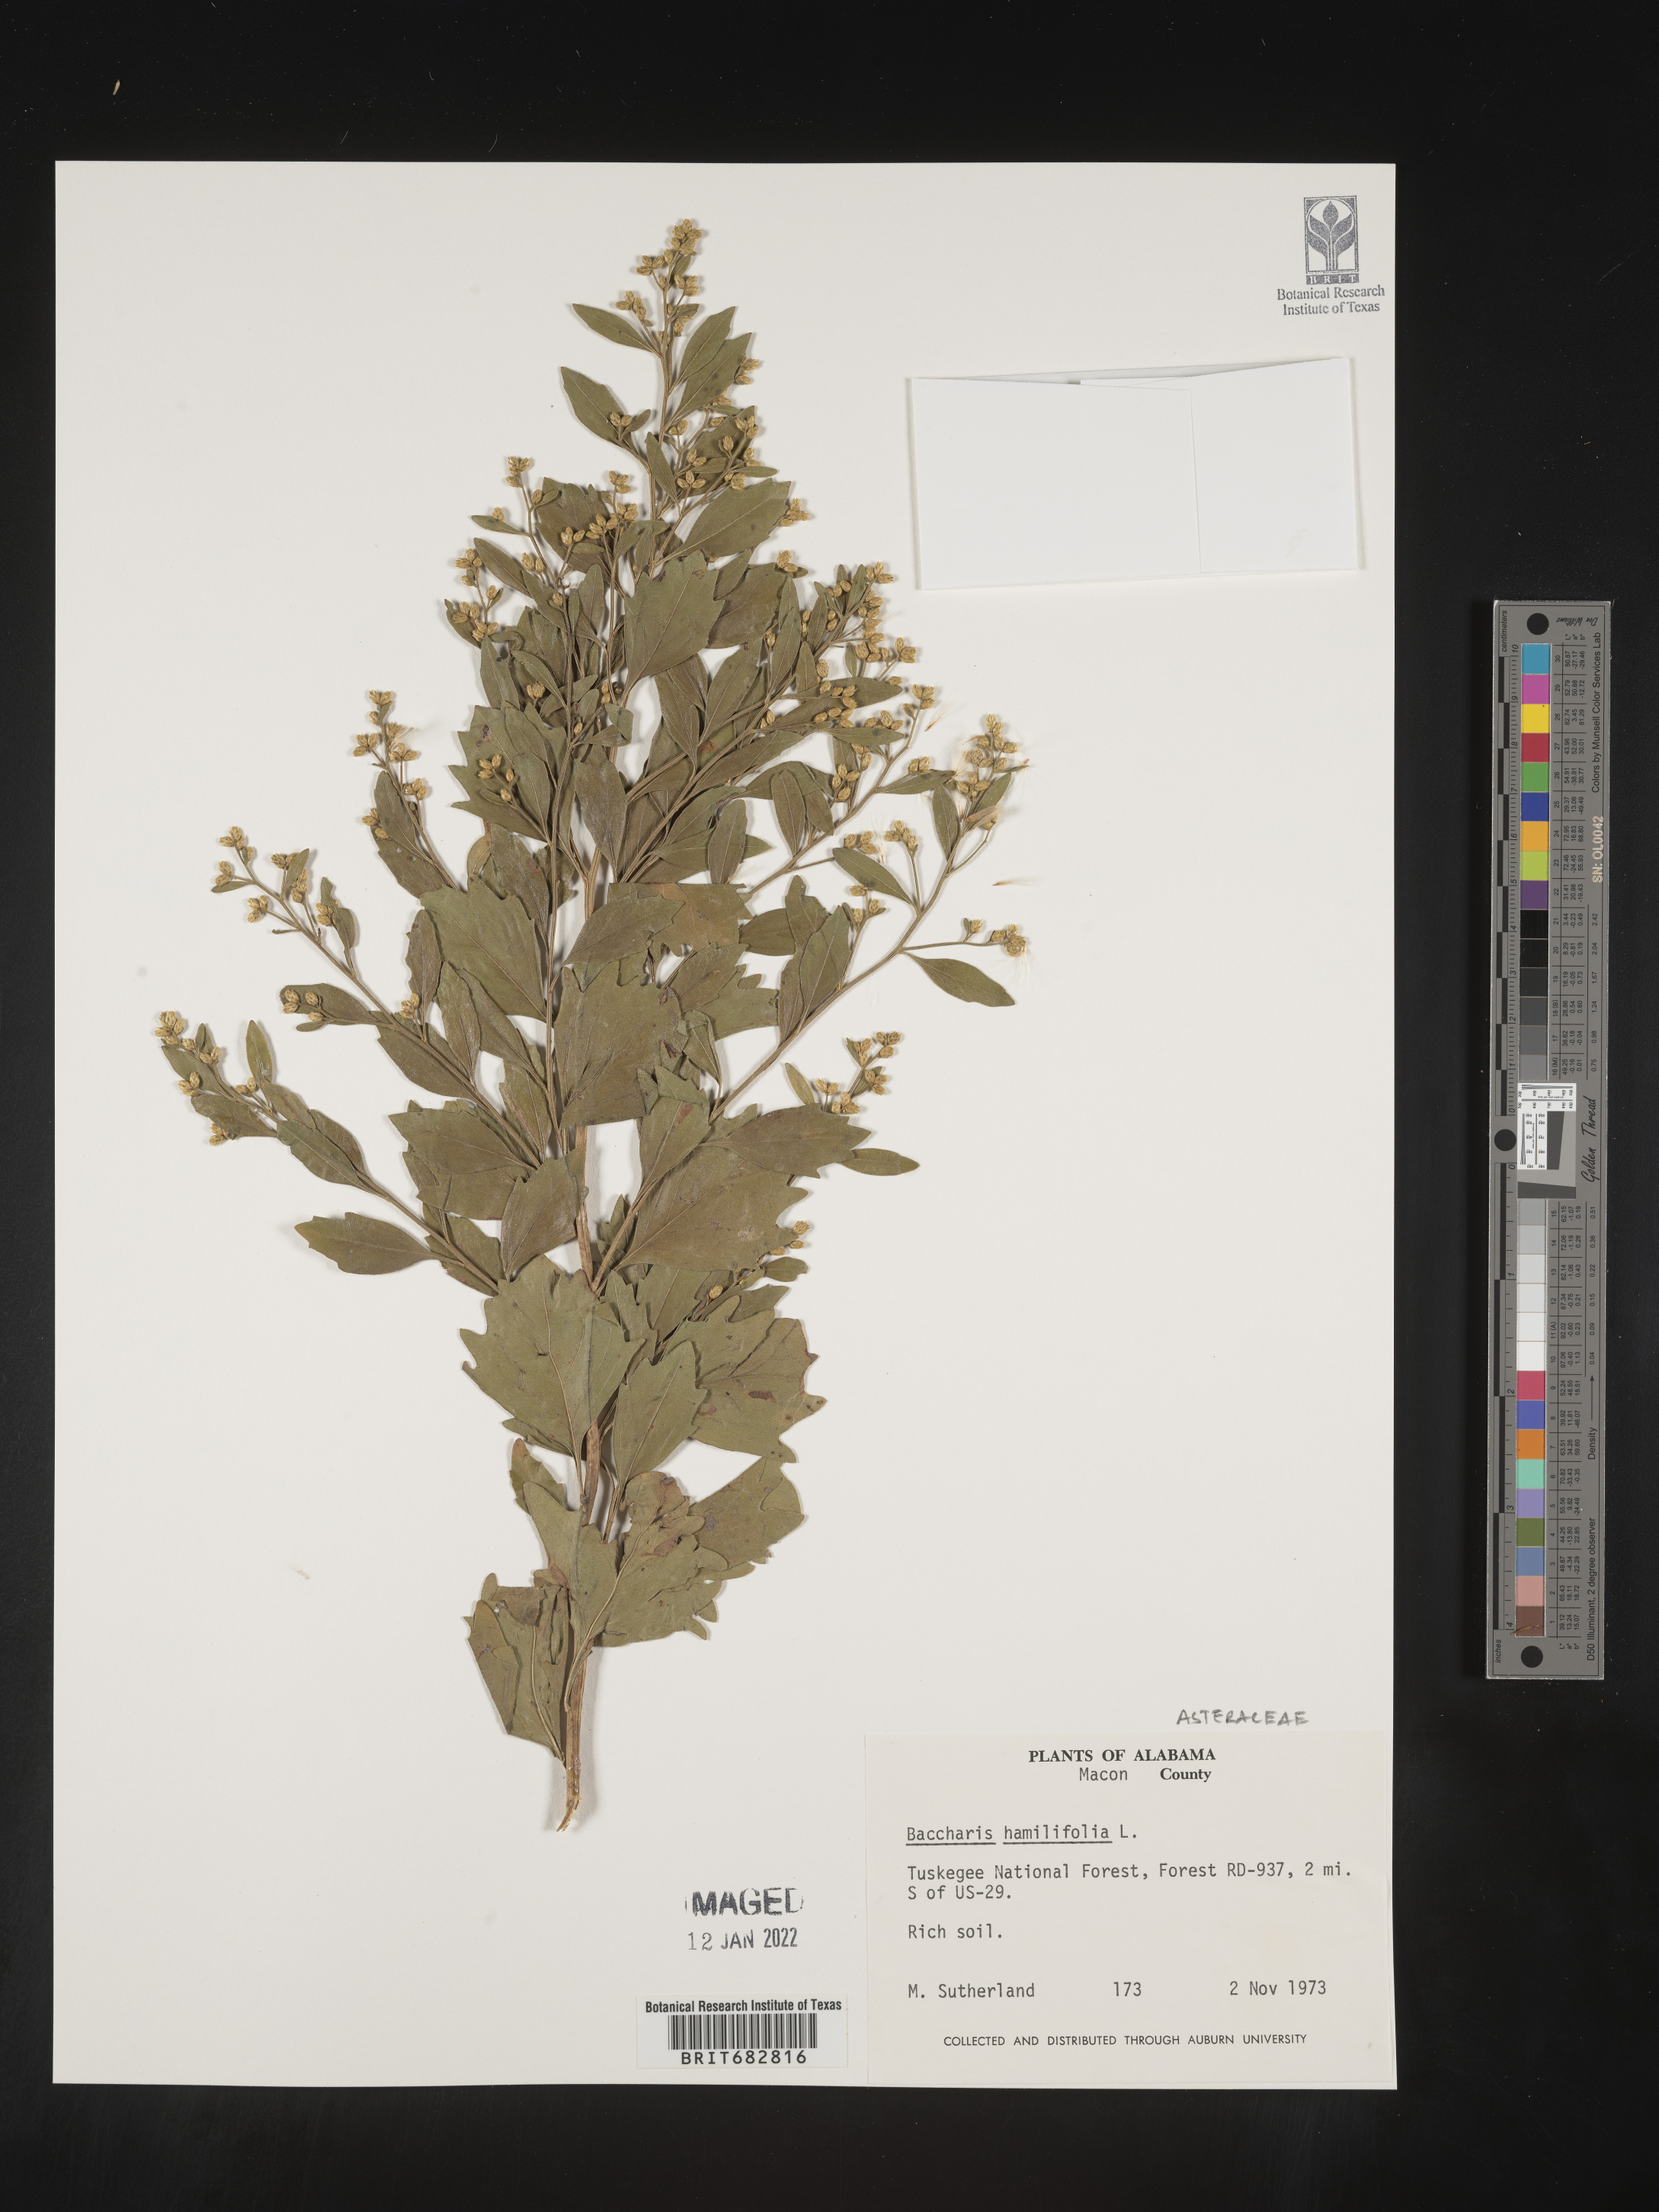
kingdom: Plantae
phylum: Tracheophyta
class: Magnoliopsida
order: Asterales
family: Asteraceae
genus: Nidorella
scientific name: Nidorella ivifolia
